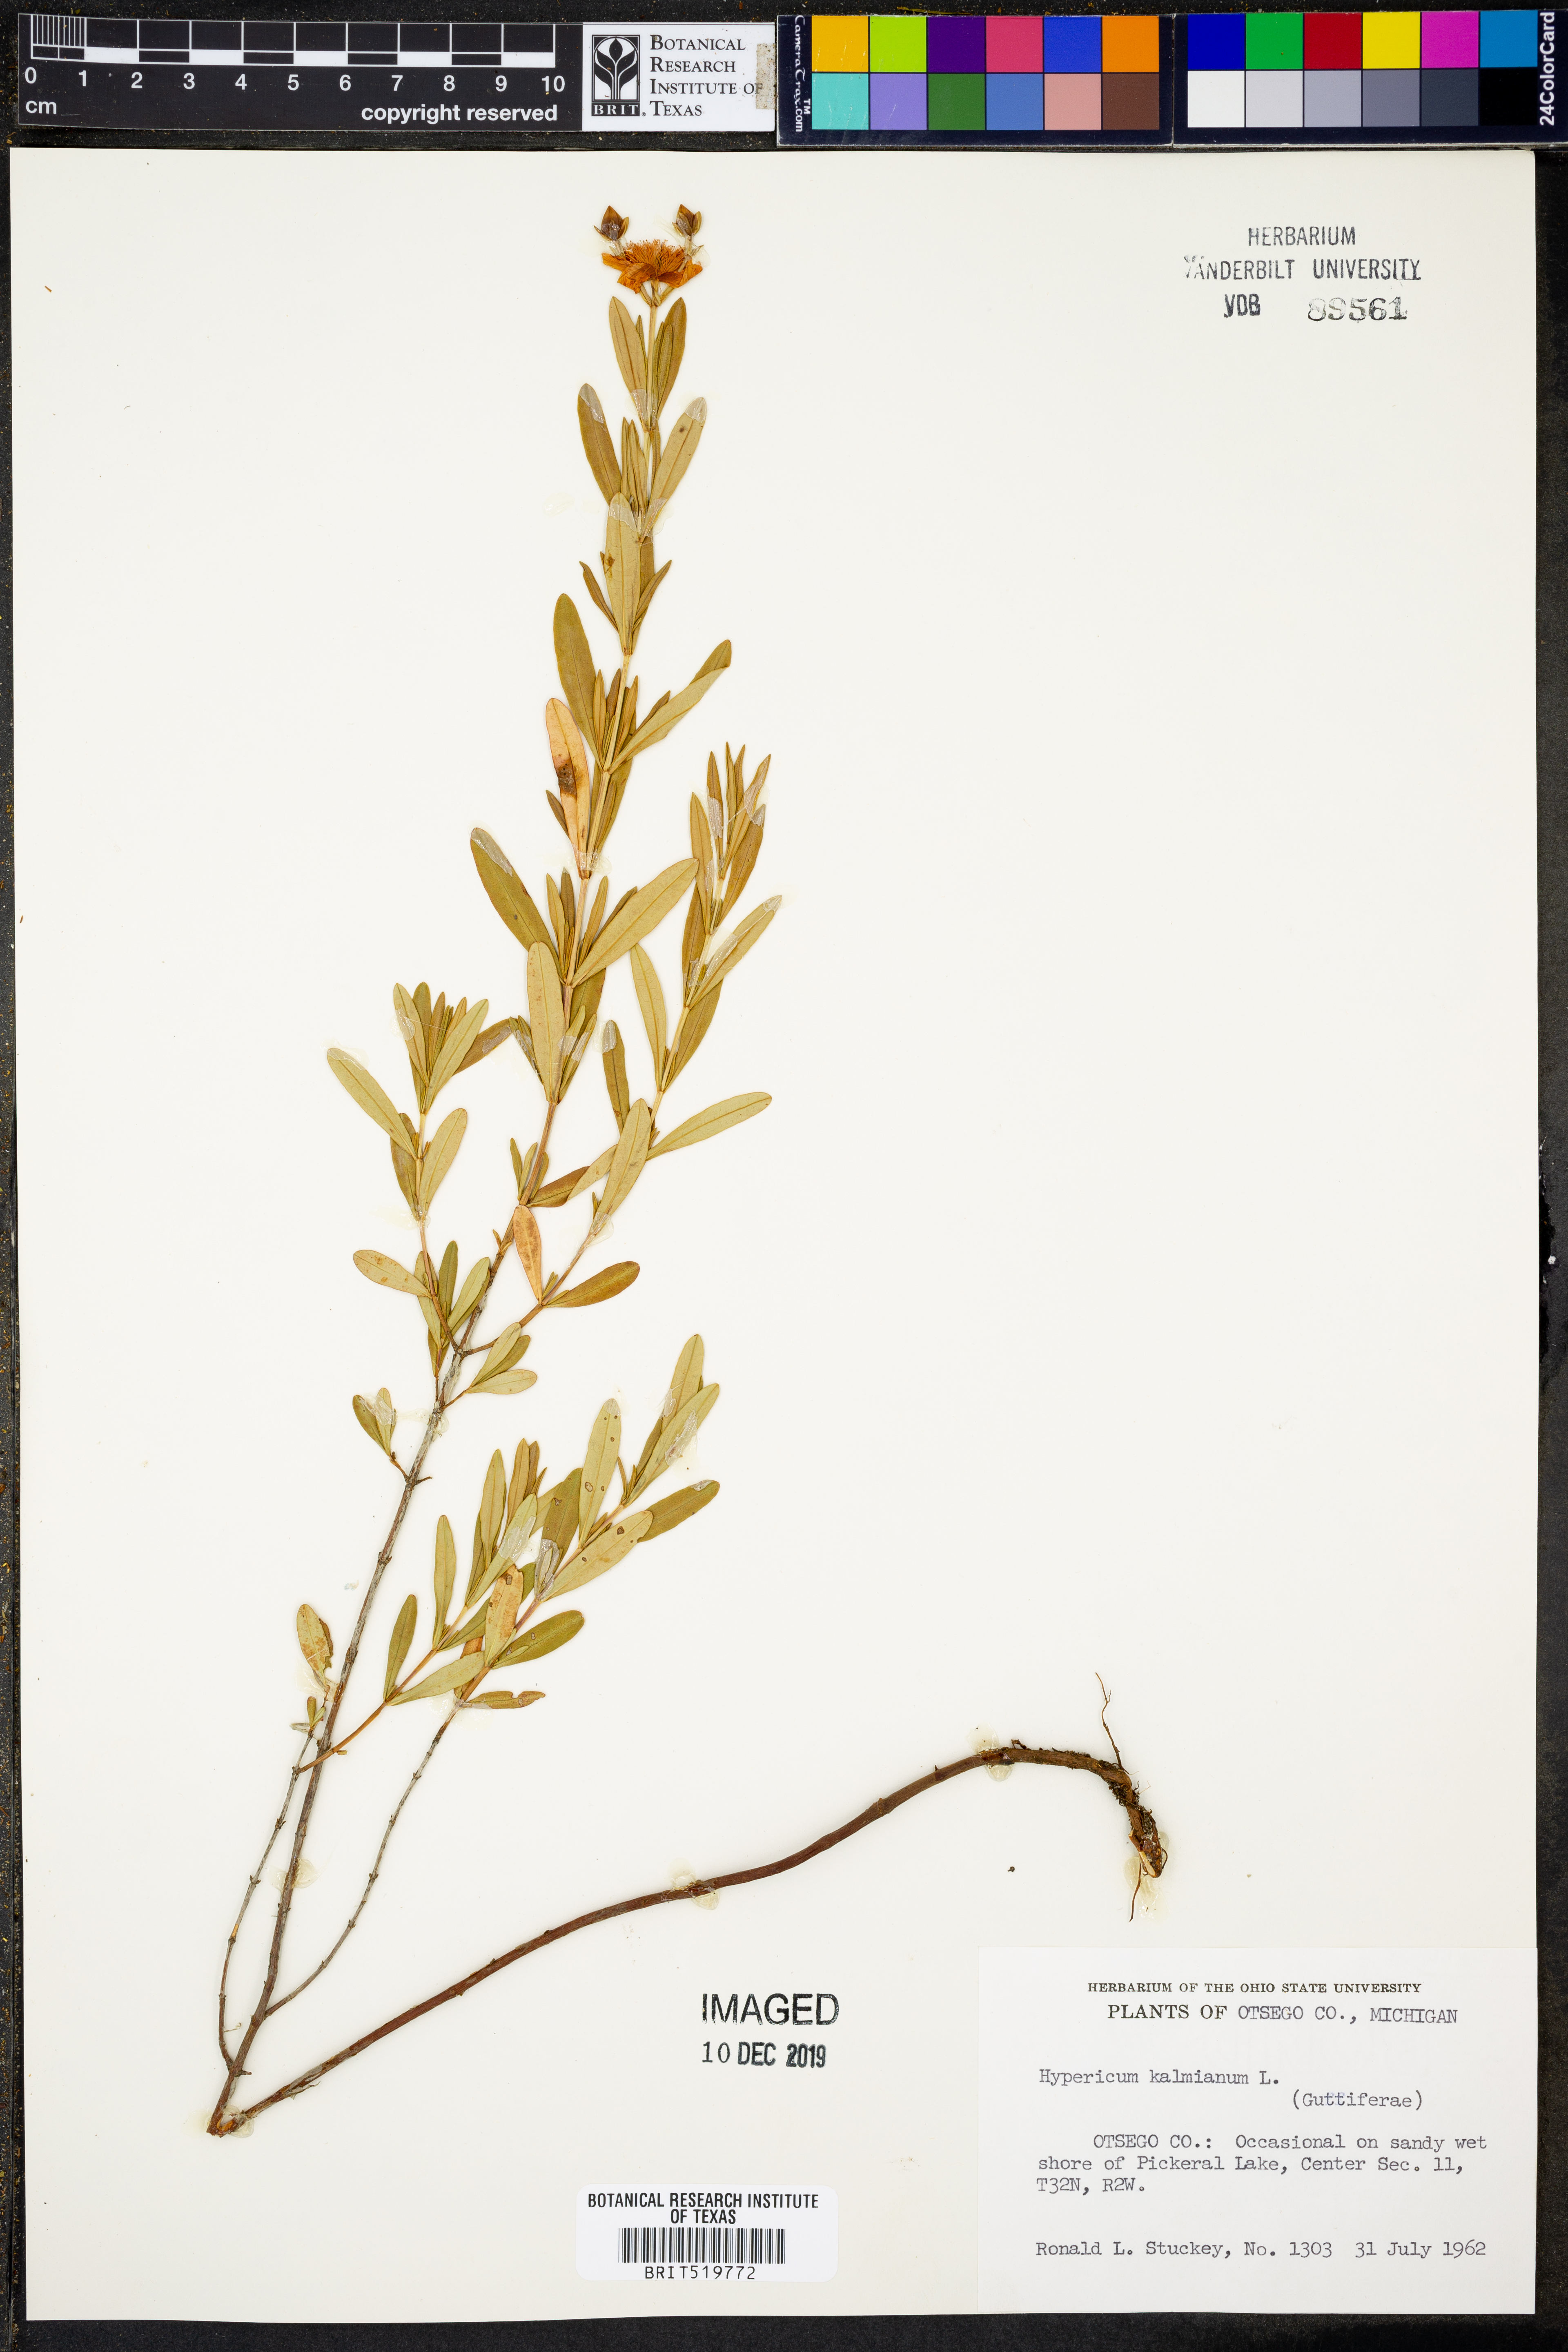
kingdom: Plantae
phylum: Tracheophyta
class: Magnoliopsida
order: Malpighiales
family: Hypericaceae
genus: Hypericum
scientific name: Hypericum kalmianum
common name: Kalm's st. john's-wort
